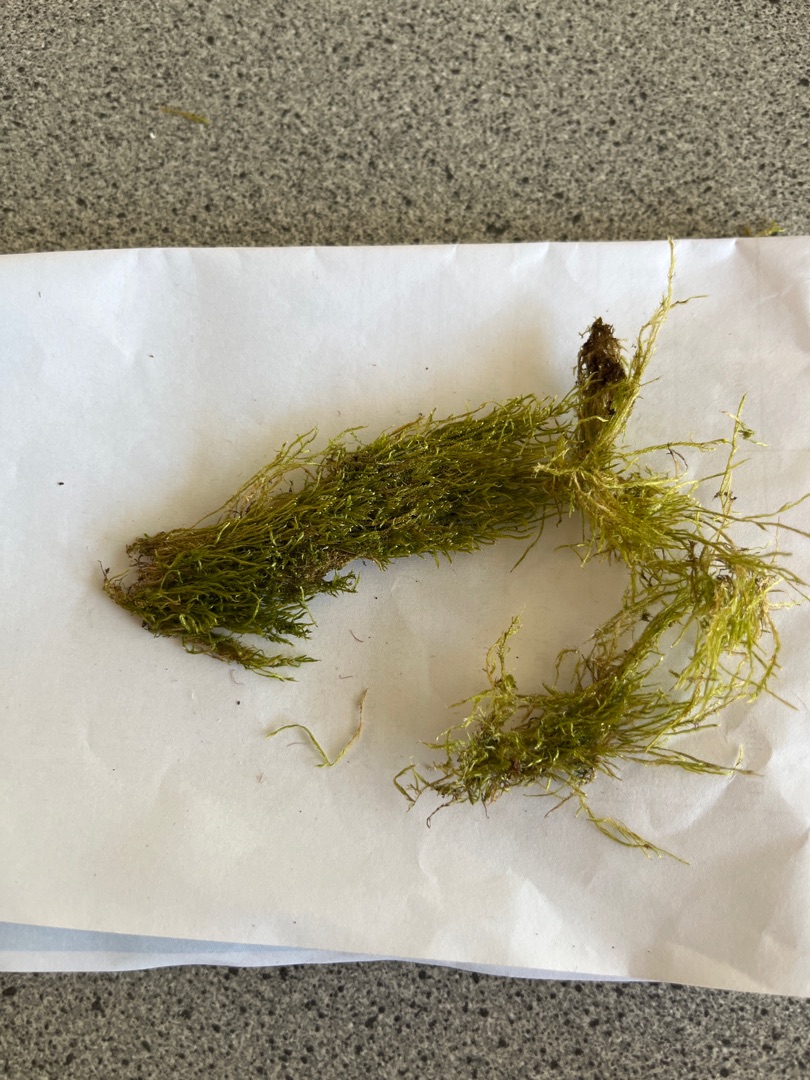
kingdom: Plantae
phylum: Bryophyta
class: Bryopsida
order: Hypnales
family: Hypnaceae
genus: Hypnum
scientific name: Hypnum
